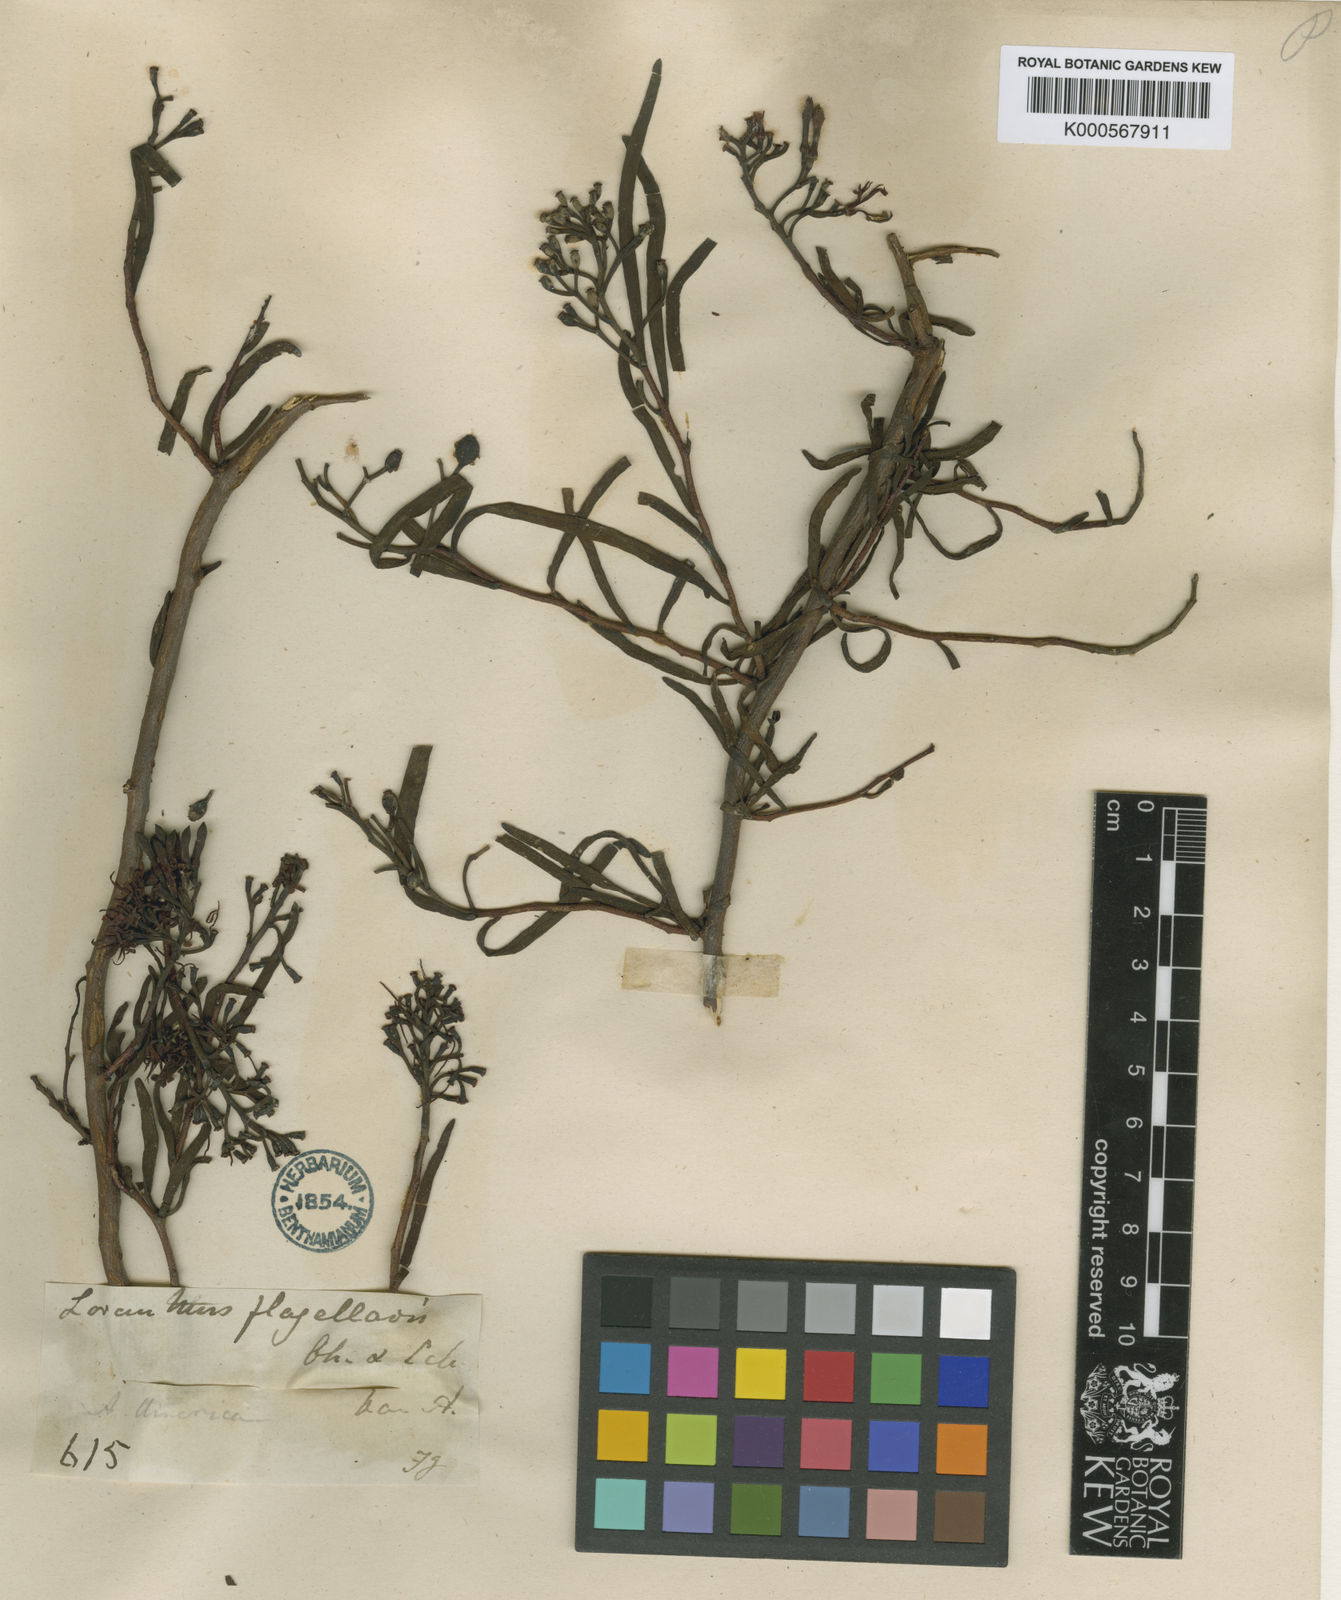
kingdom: Plantae
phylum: Tracheophyta
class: Magnoliopsida
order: Santalales
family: Loranthaceae
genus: Tripodanthus
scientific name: Tripodanthus flagellaris
